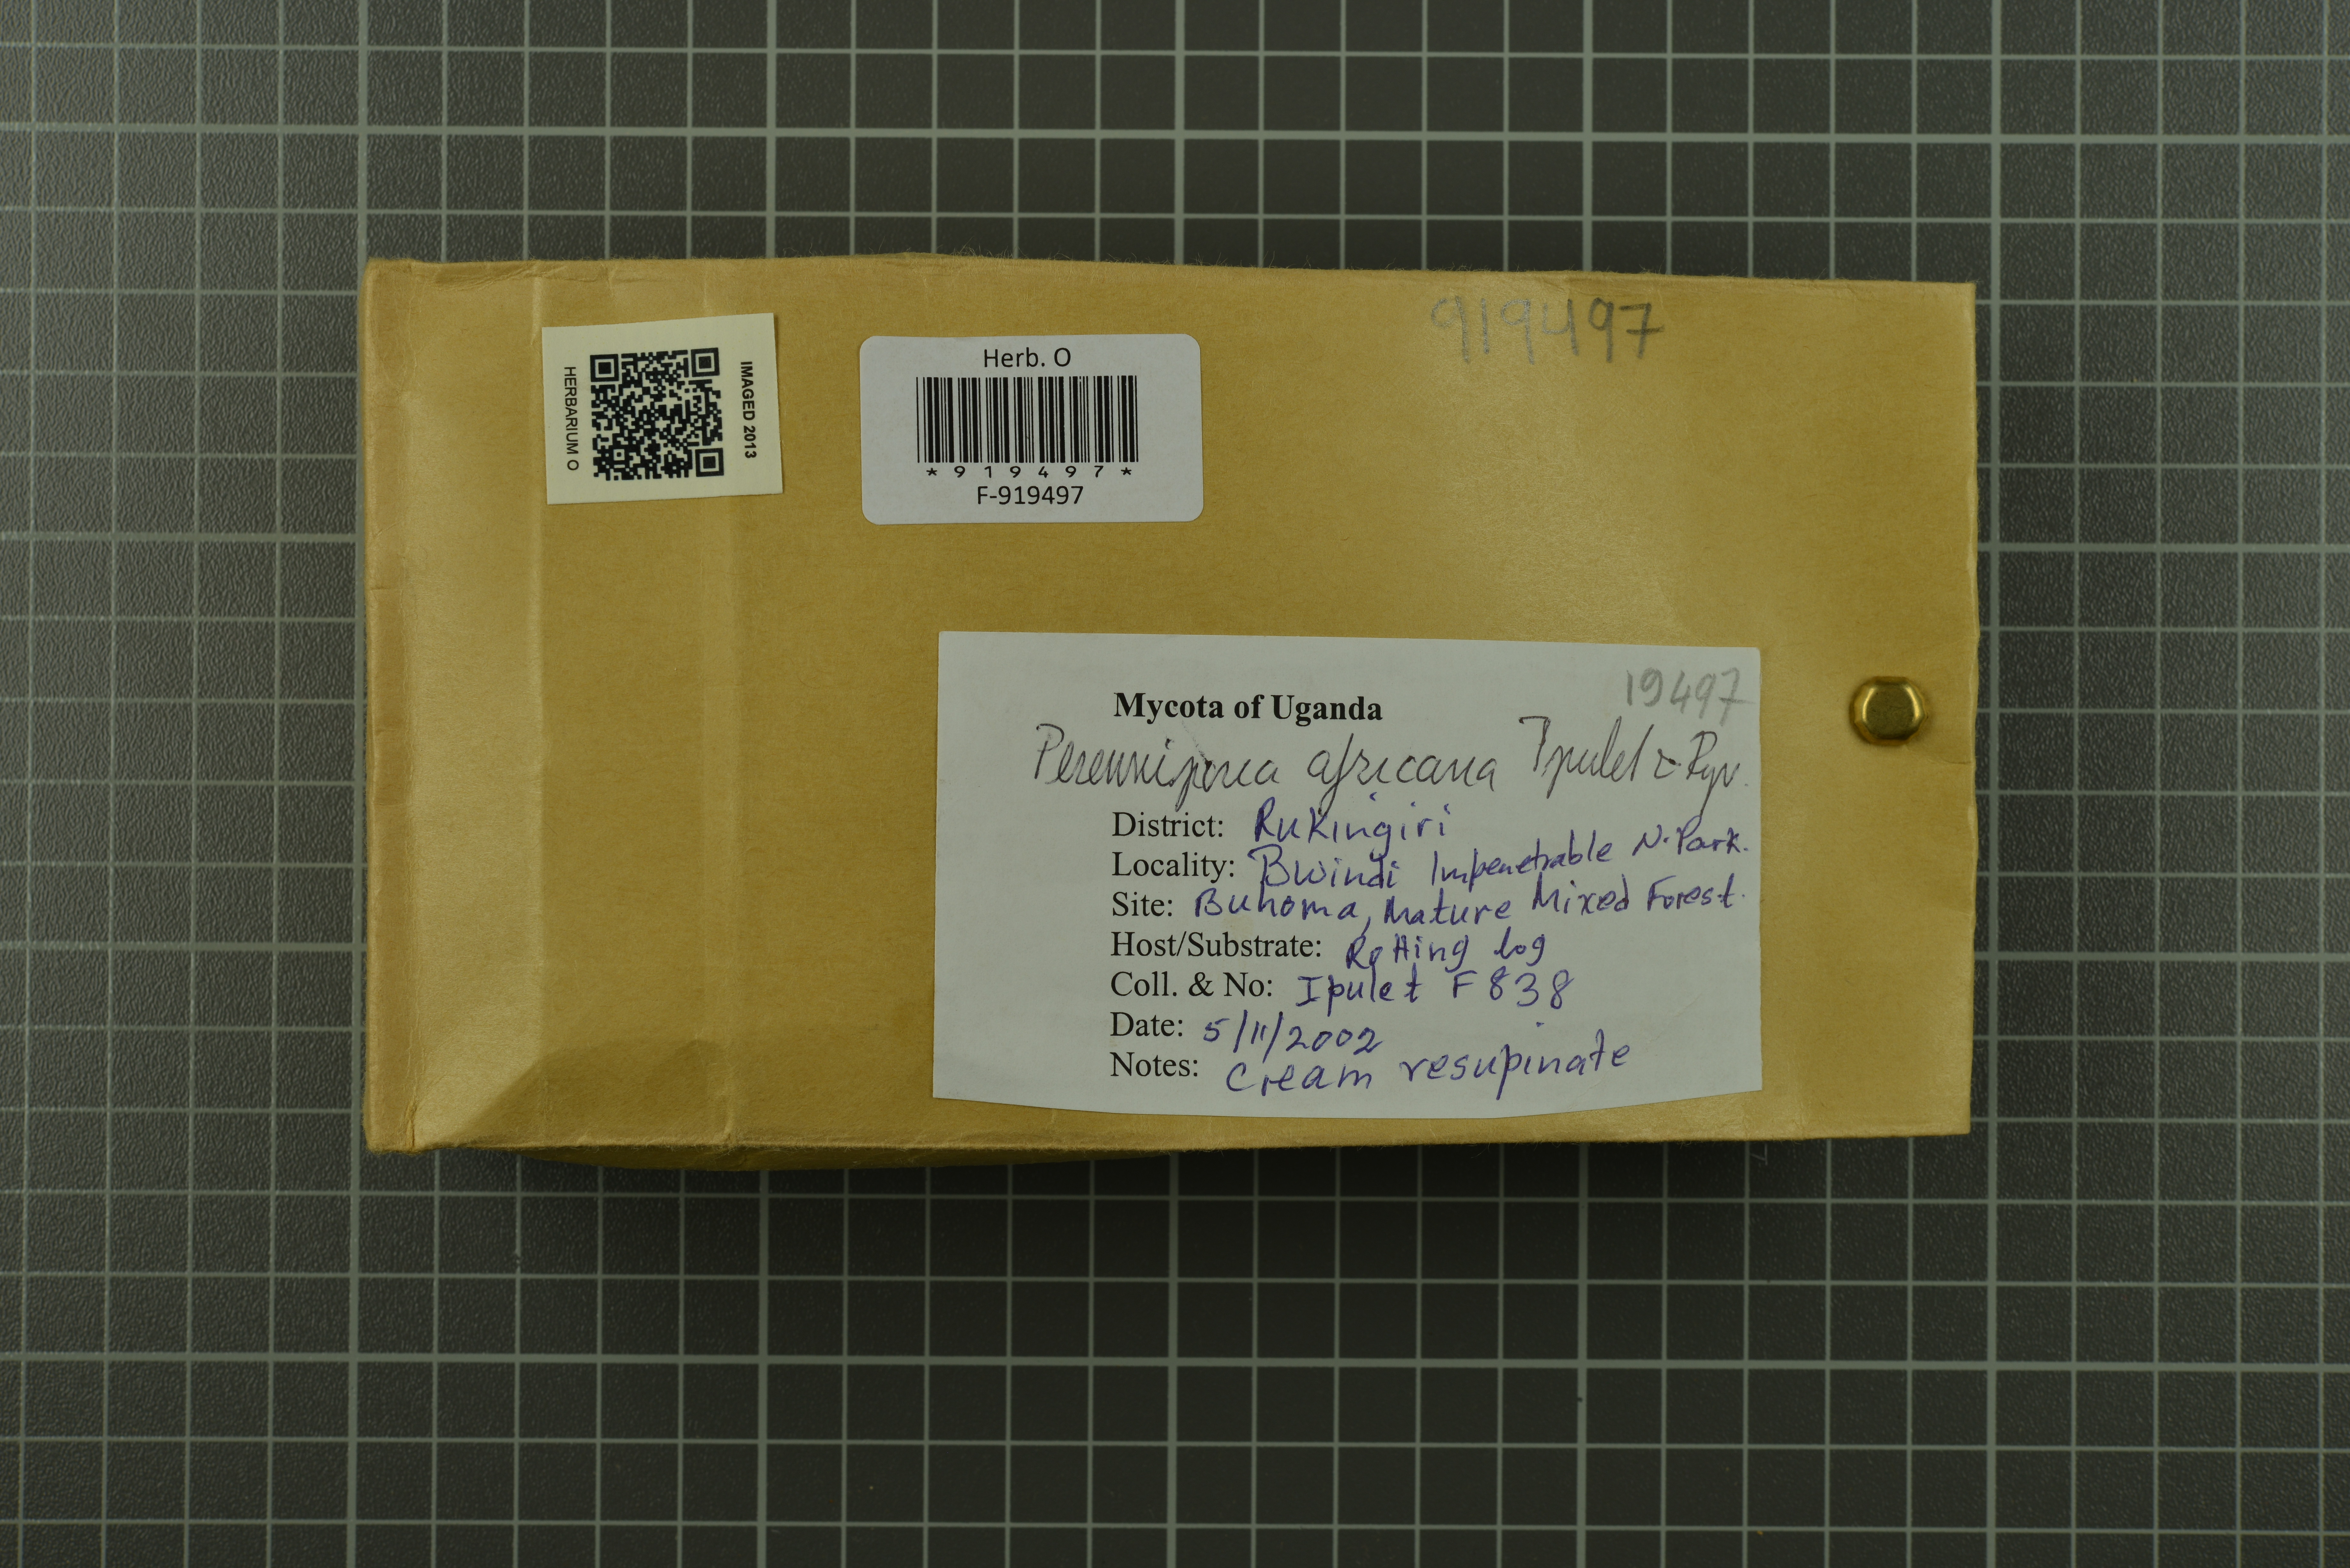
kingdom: Fungi
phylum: Basidiomycota
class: Agaricomycetes
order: Polyporales
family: Polyporaceae
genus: Perenniporia
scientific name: Perenniporia africana
